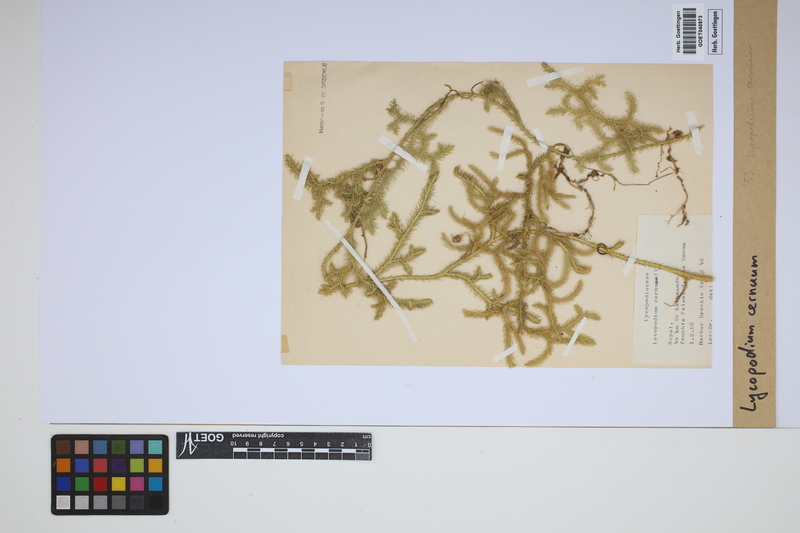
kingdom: Plantae
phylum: Tracheophyta
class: Lycopodiopsida
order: Lycopodiales
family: Lycopodiaceae
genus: Palhinhaea
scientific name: Palhinhaea cernua
